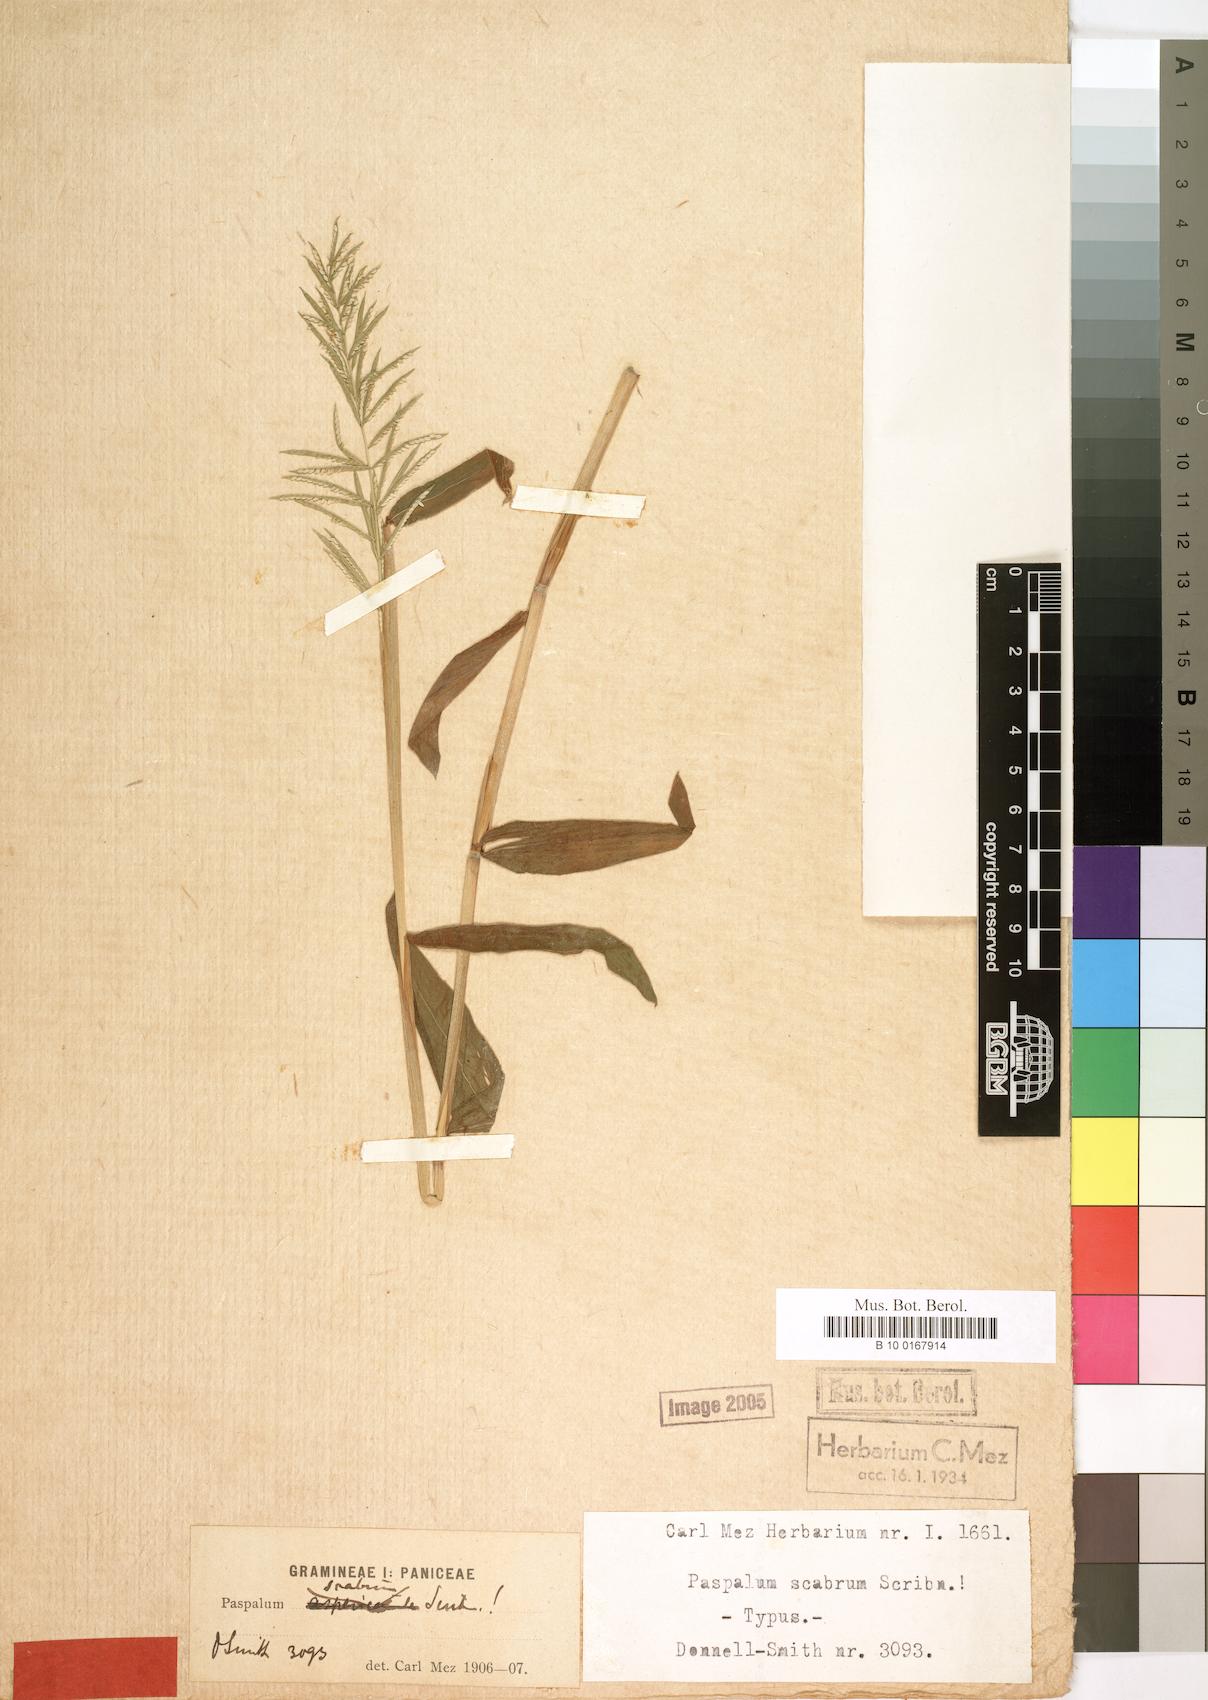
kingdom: Plantae
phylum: Tracheophyta
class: Liliopsida
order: Poales
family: Poaceae
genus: Paspalum
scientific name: Paspalum candidum
